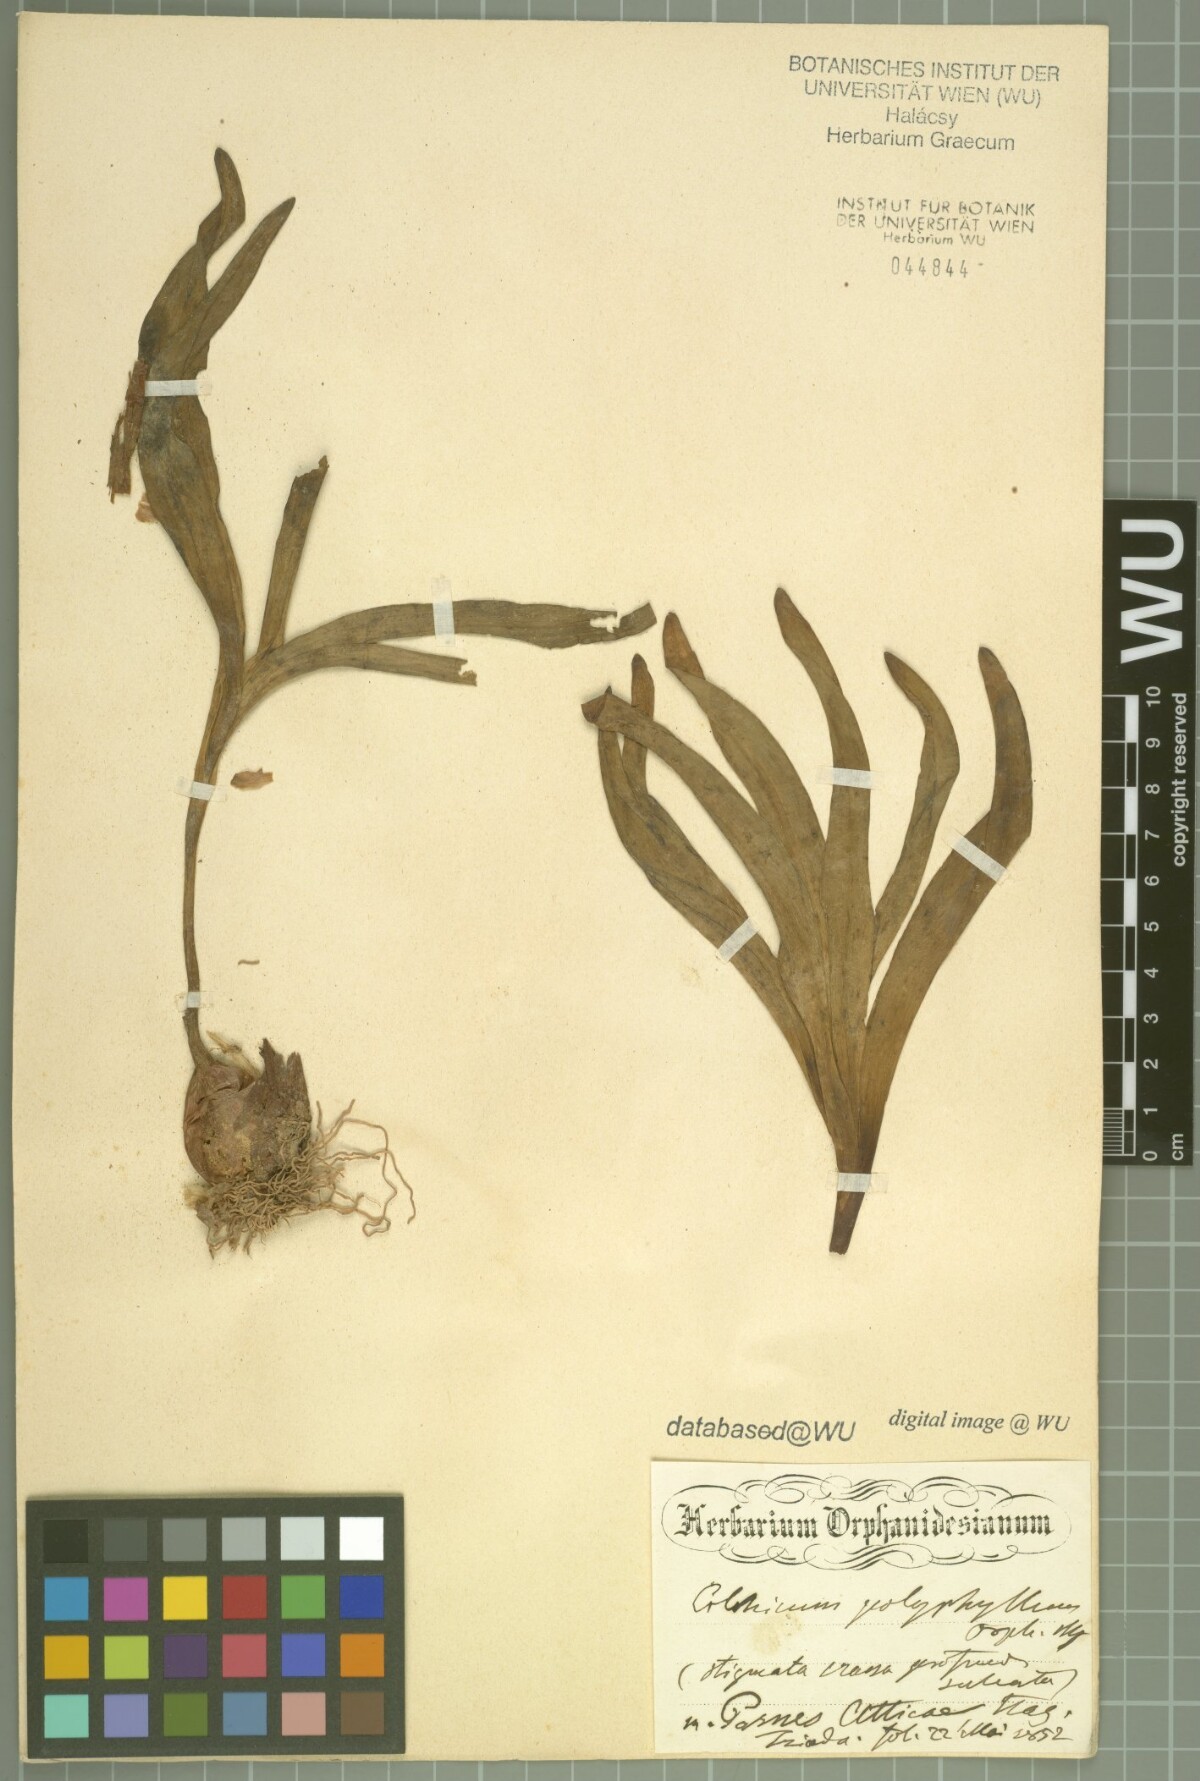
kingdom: Plantae
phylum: Tracheophyta
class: Liliopsida
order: Liliales
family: Colchicaceae
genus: Colchicum
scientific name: Colchicum bivonae
